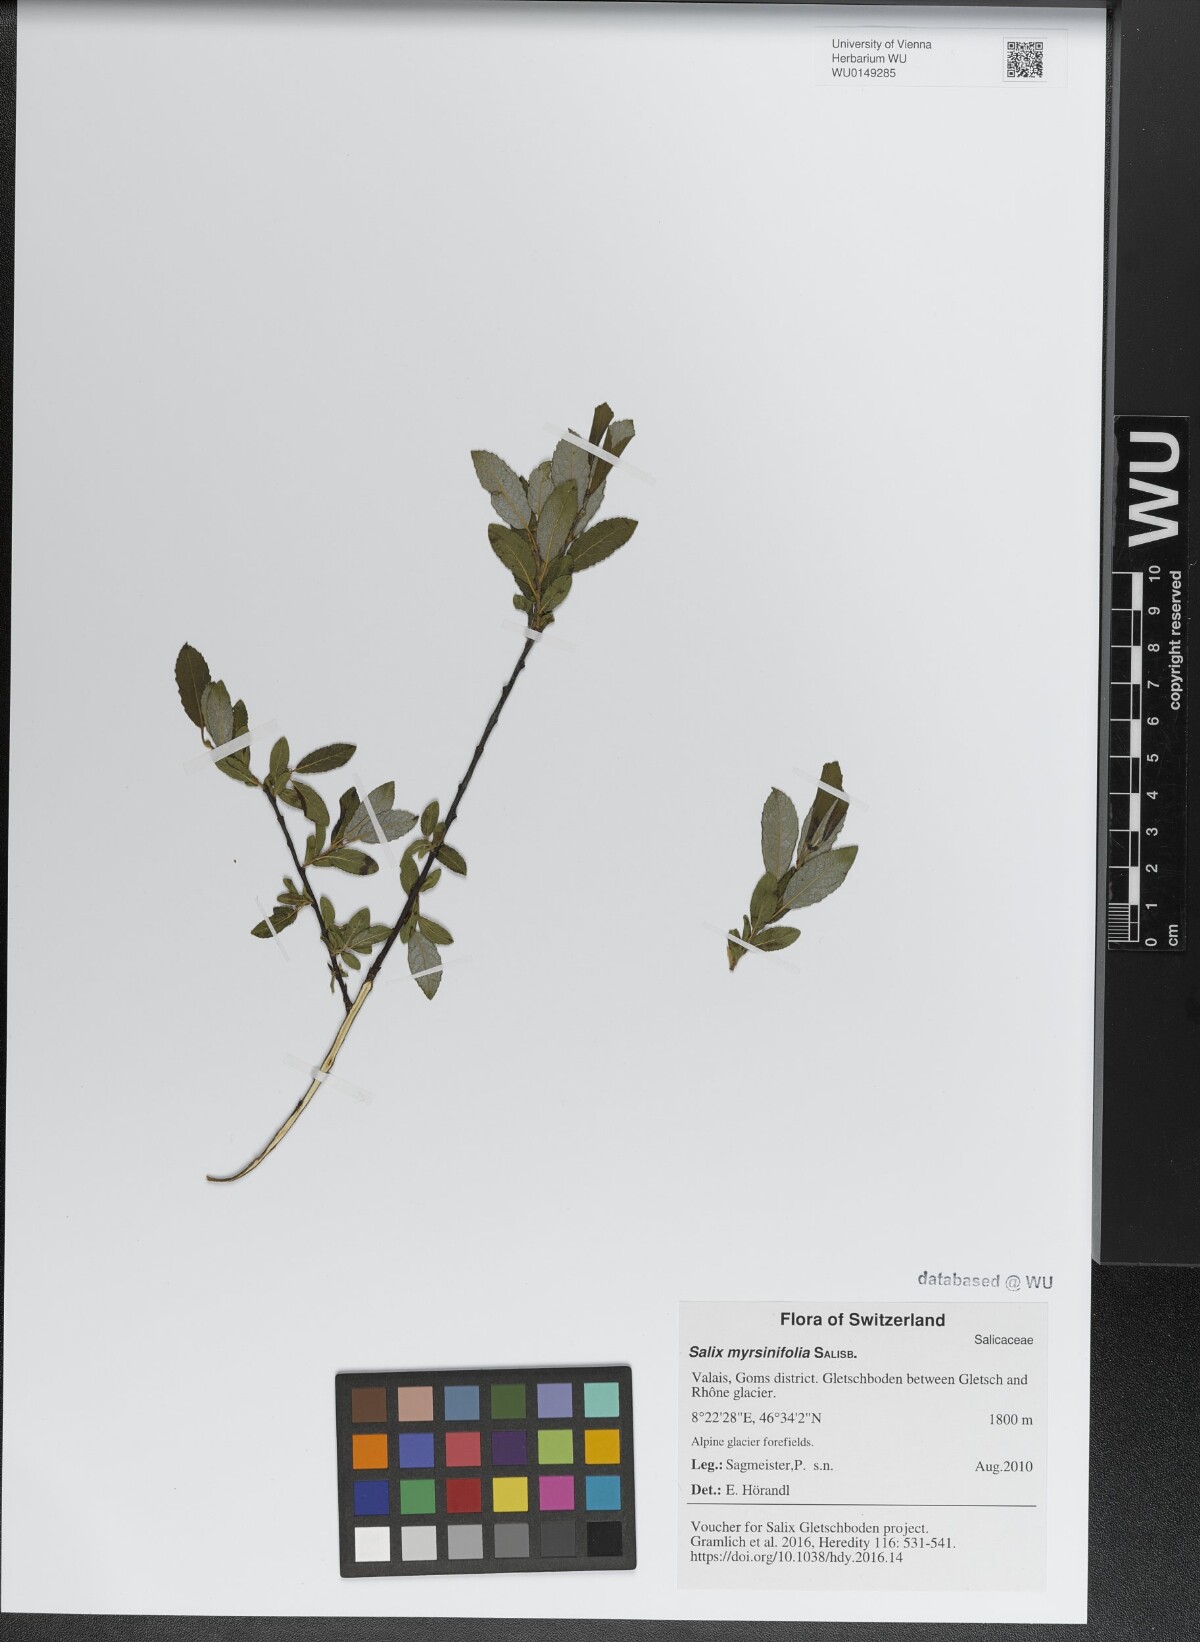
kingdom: Plantae
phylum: Tracheophyta
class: Magnoliopsida
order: Malpighiales
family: Salicaceae
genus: Salix
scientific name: Salix myrsinifolia
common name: Dark-leaved willow
